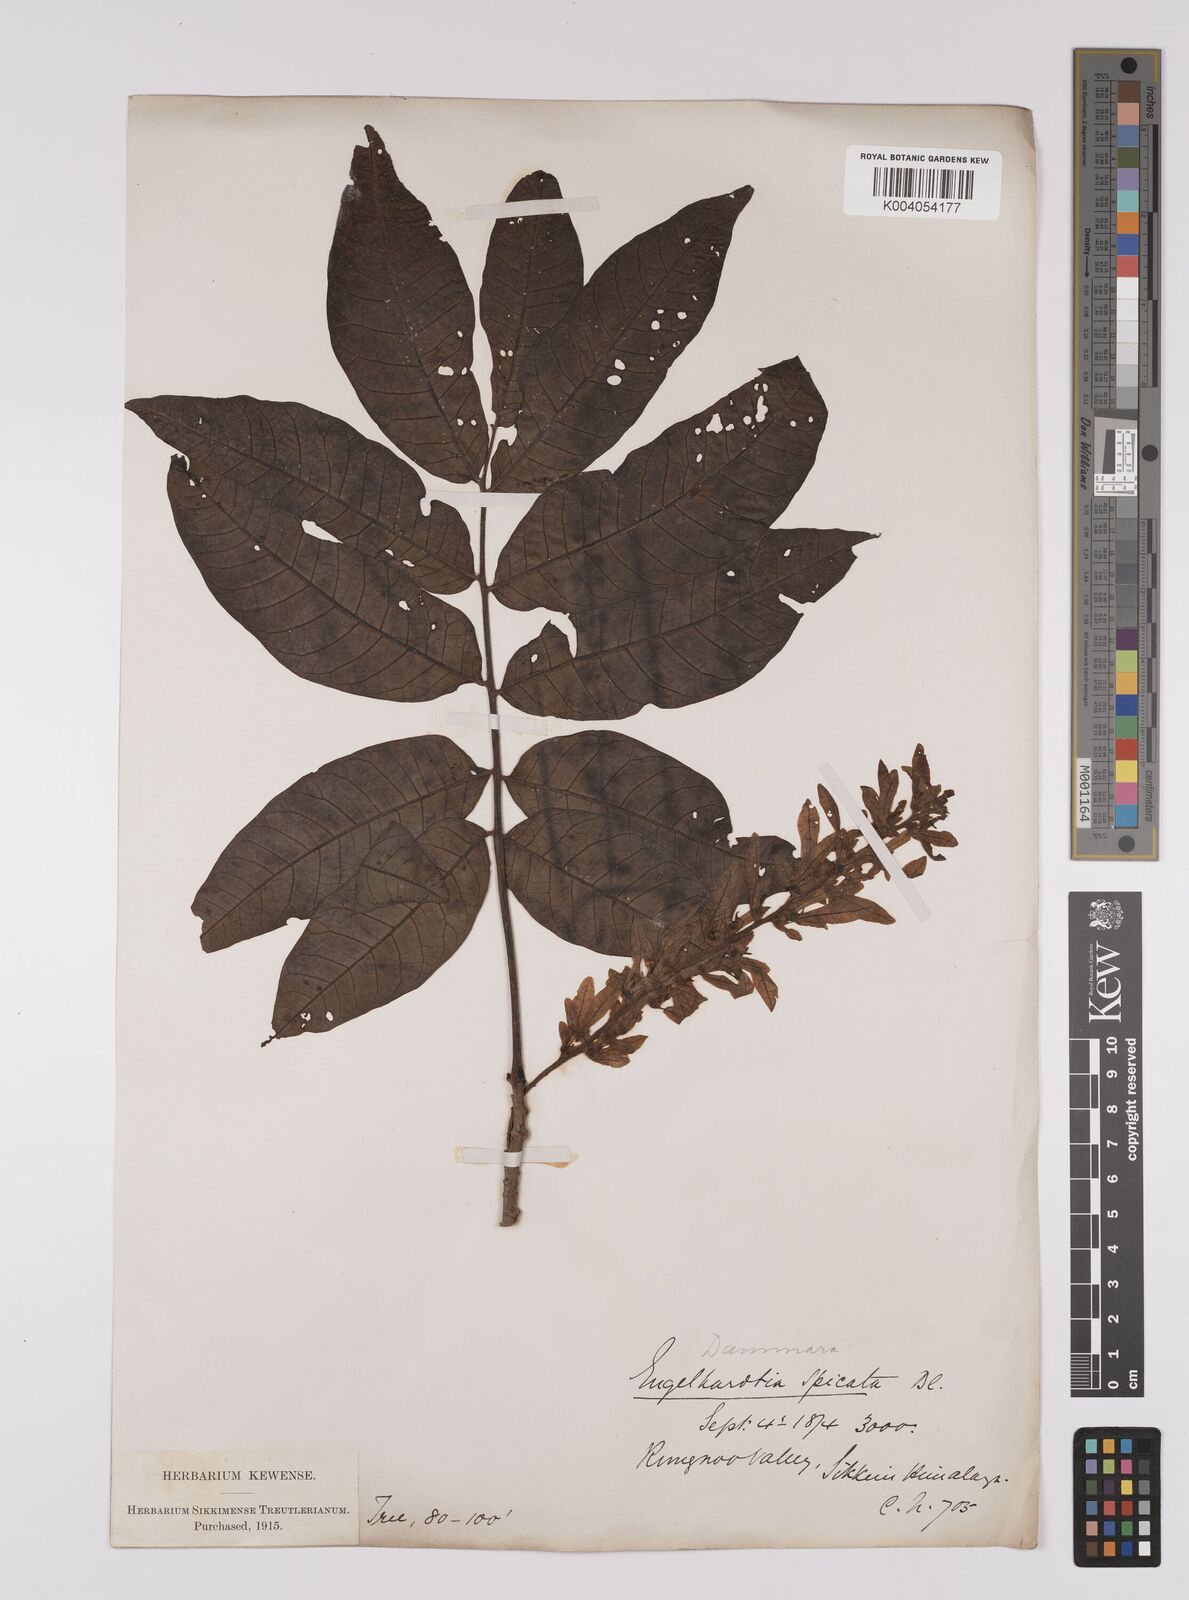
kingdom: Plantae
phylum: Tracheophyta
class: Magnoliopsida
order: Fagales
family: Juglandaceae
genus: Engelhardia
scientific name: Engelhardia spicata
